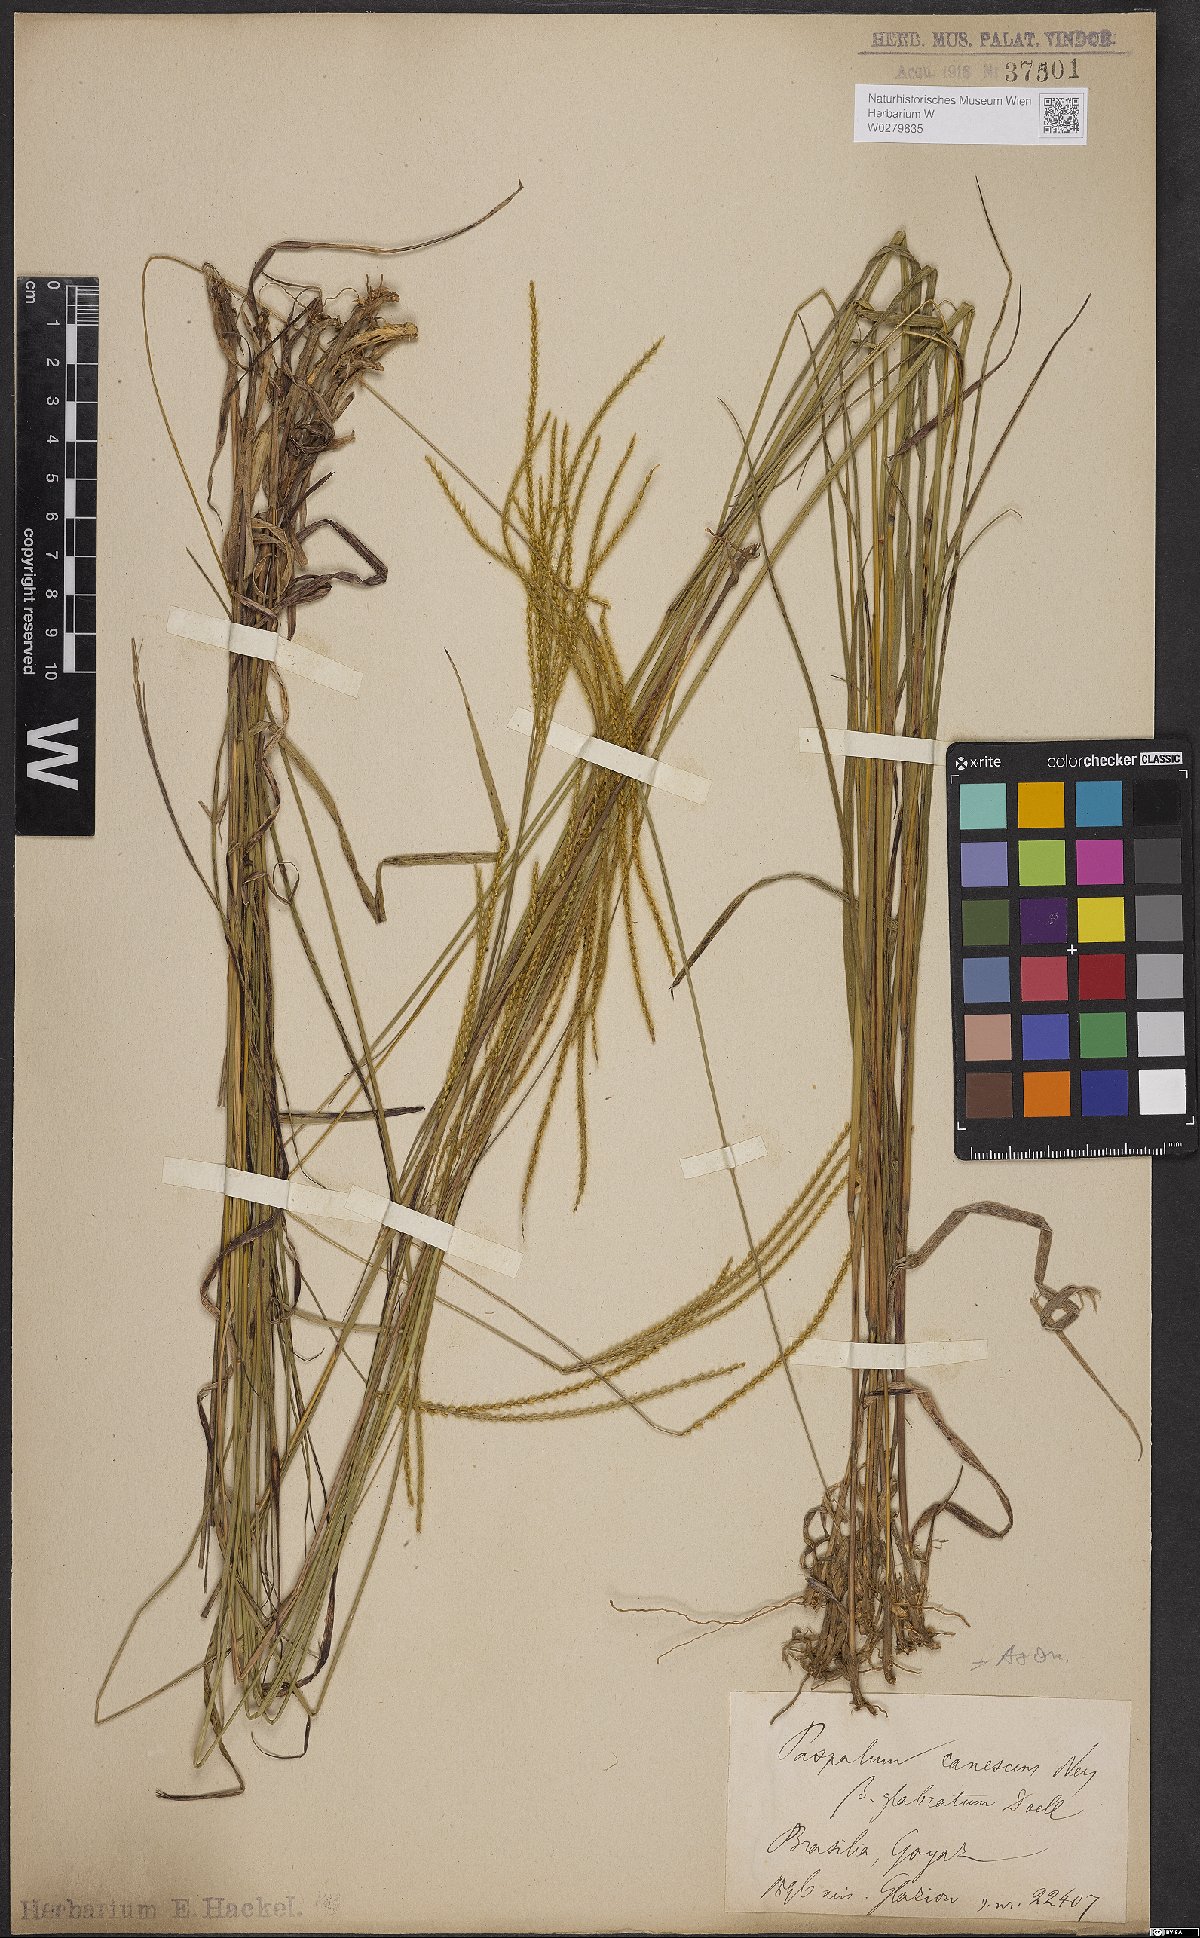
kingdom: Plantae
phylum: Tracheophyta
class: Liliopsida
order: Poales
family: Poaceae
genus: Axonopus
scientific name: Axonopus aureus
